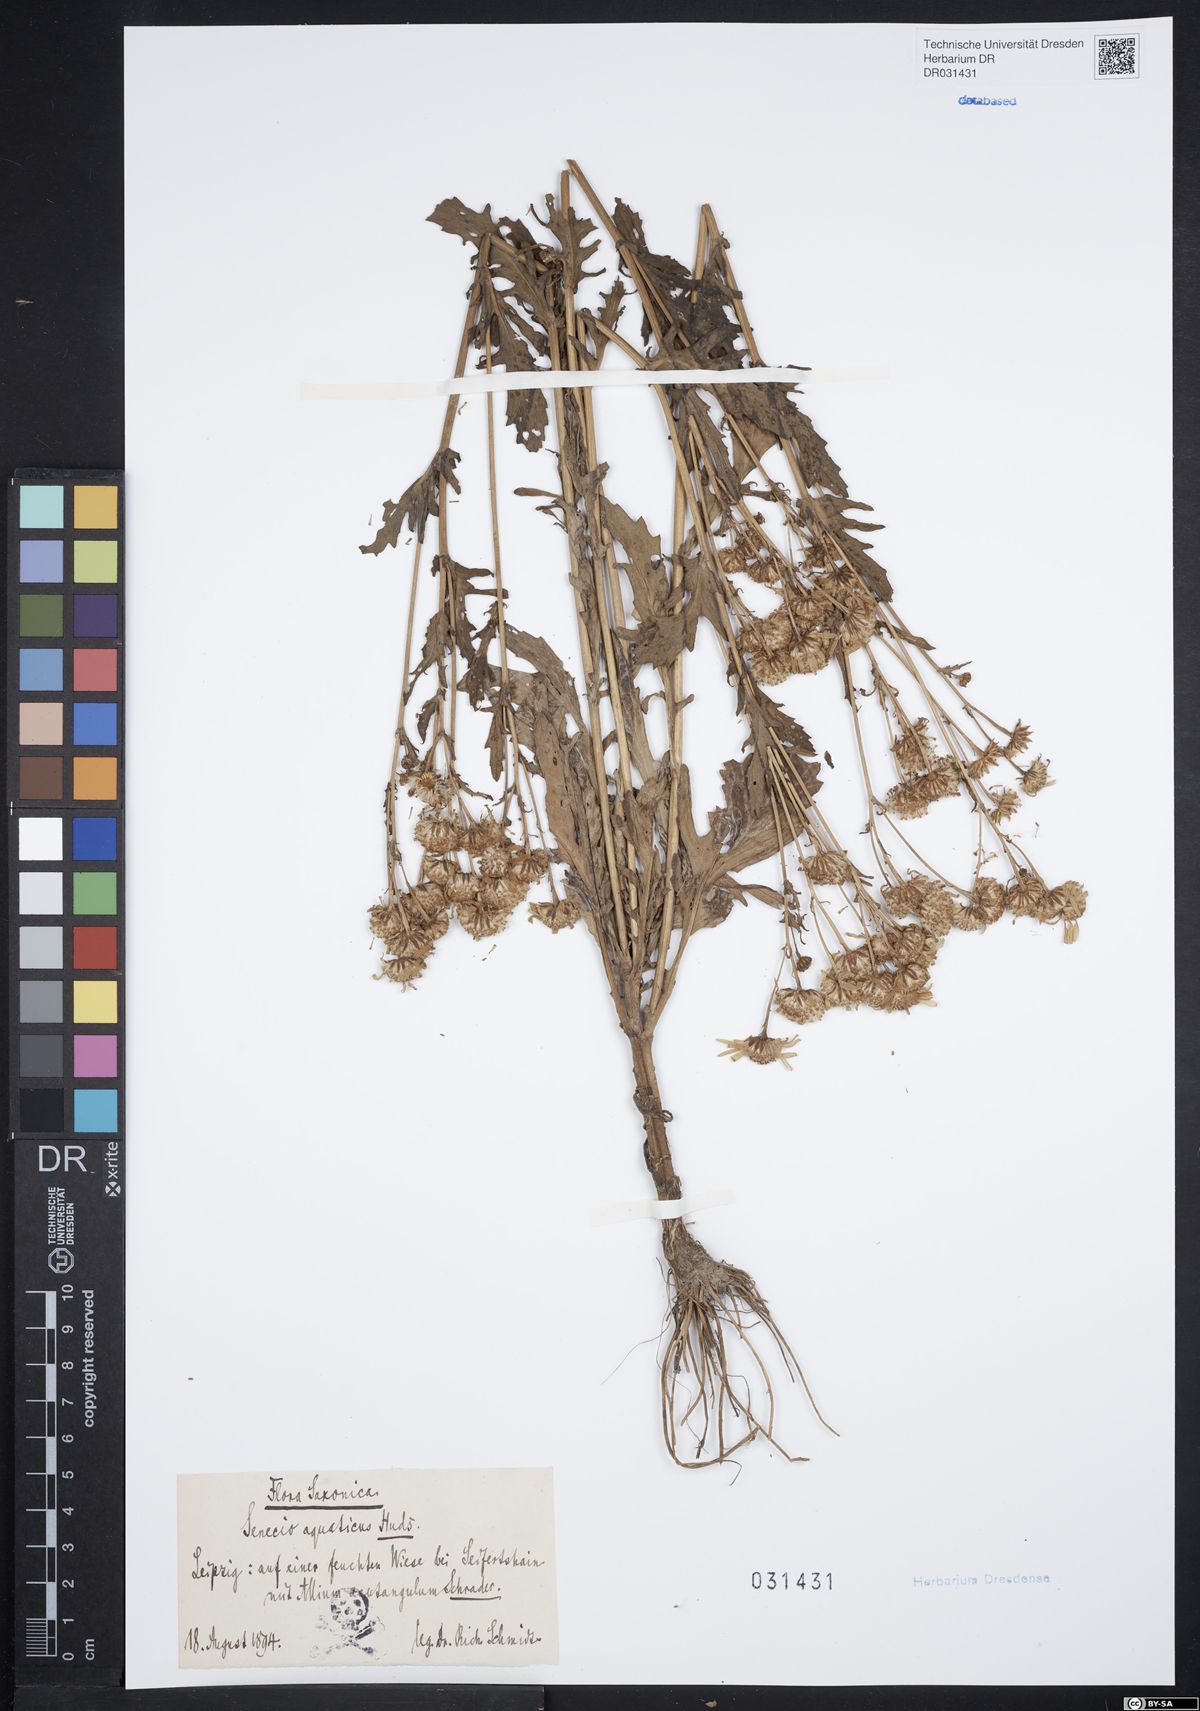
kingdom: Plantae
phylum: Tracheophyta
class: Magnoliopsida
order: Asterales
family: Asteraceae
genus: Jacobaea
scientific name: Jacobaea aquatica
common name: Water ragwort
